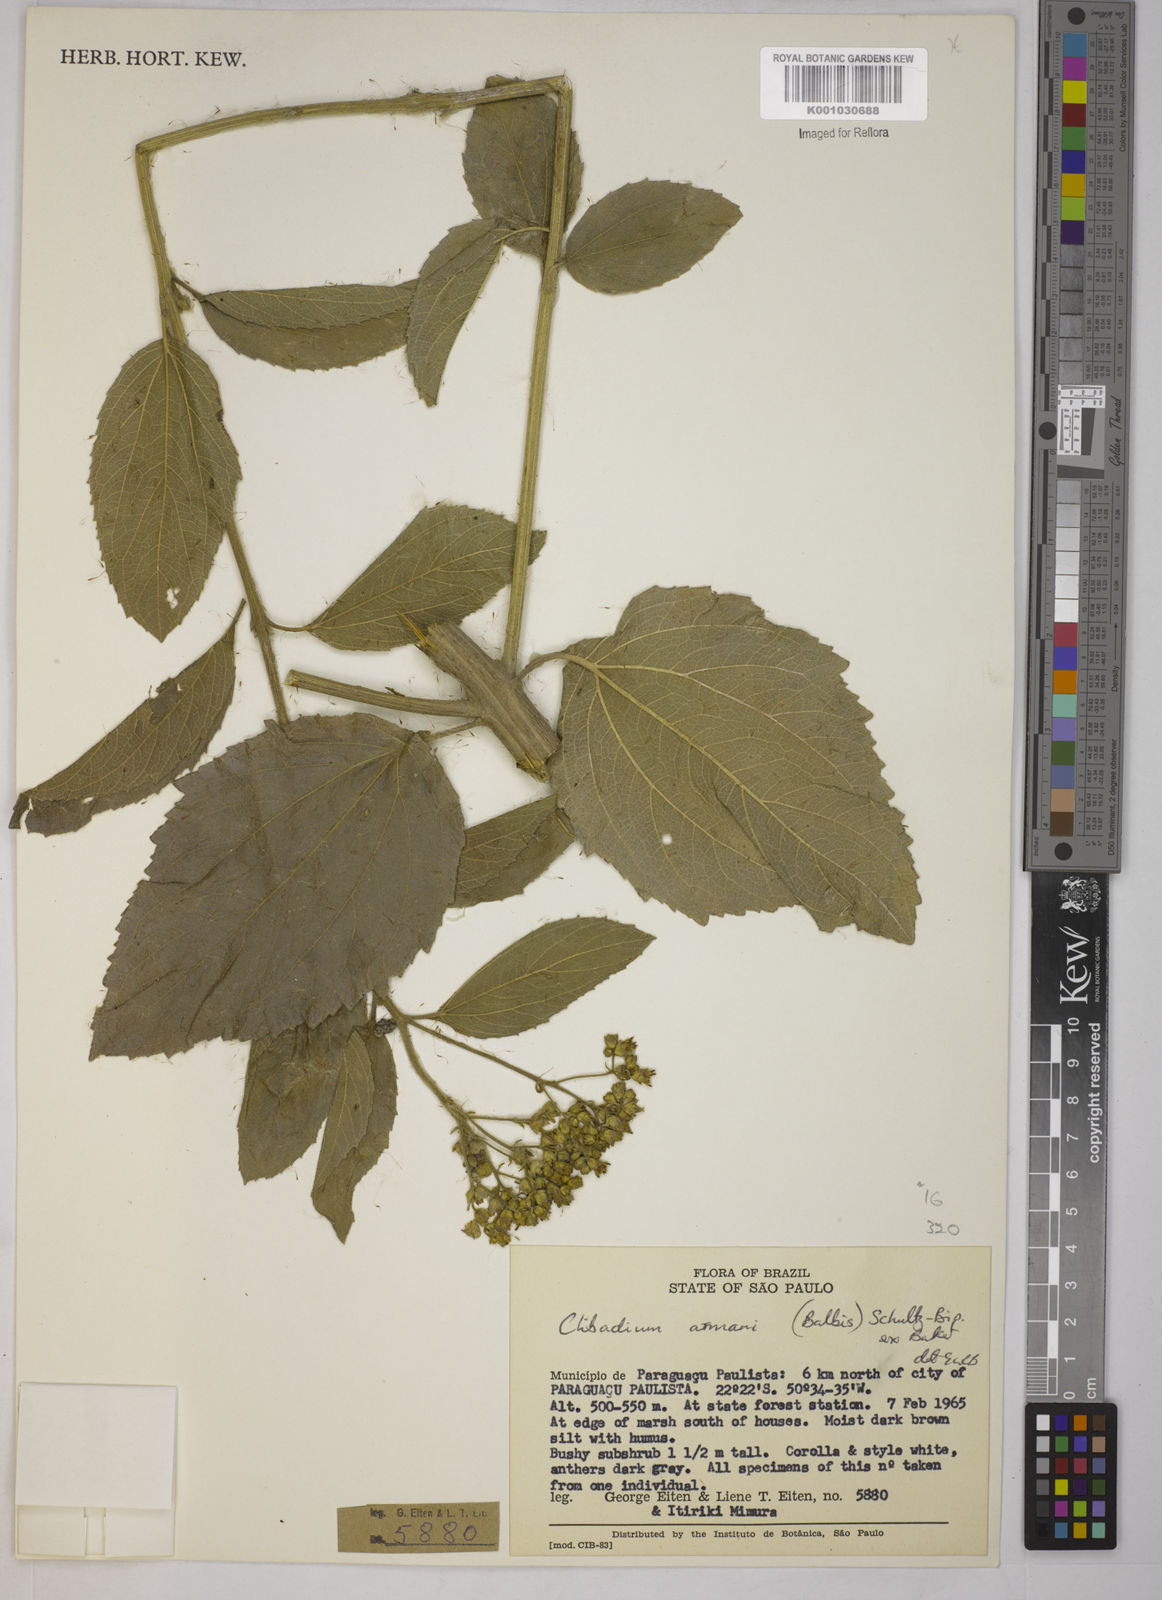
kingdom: Plantae
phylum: Tracheophyta
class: Magnoliopsida
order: Asterales
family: Asteraceae
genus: Clibadium
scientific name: Clibadium armanii
